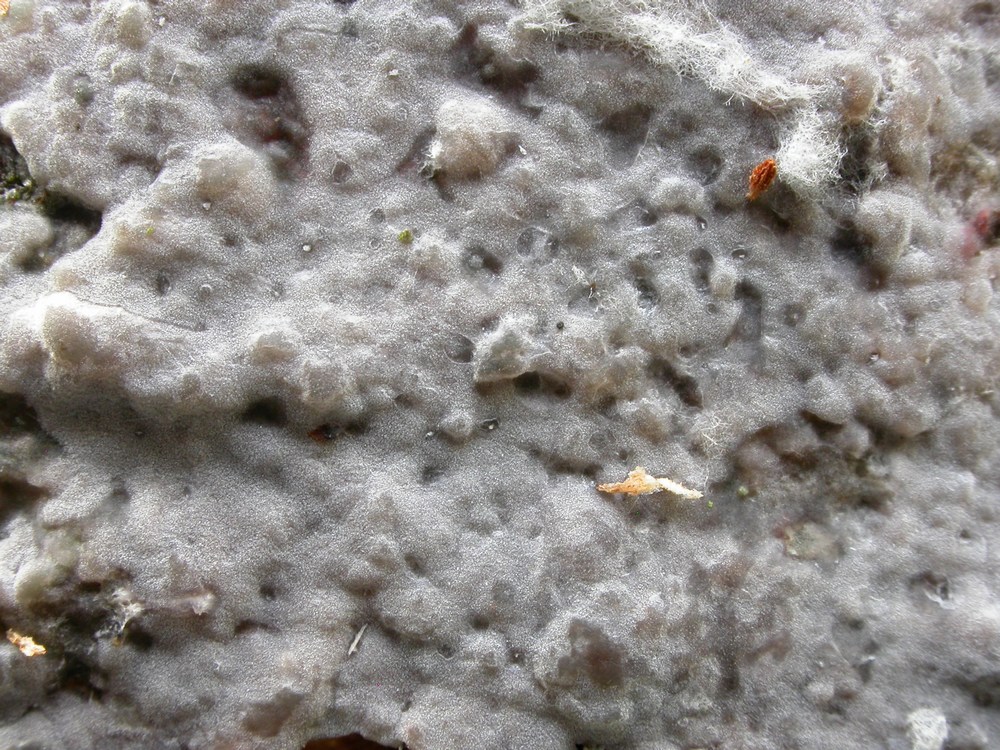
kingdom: Fungi
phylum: Basidiomycota
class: Agaricomycetes
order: Sebacinales
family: Sebacinaceae
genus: Sebacina
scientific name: Sebacina grisea
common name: blågrå bævrehinde
